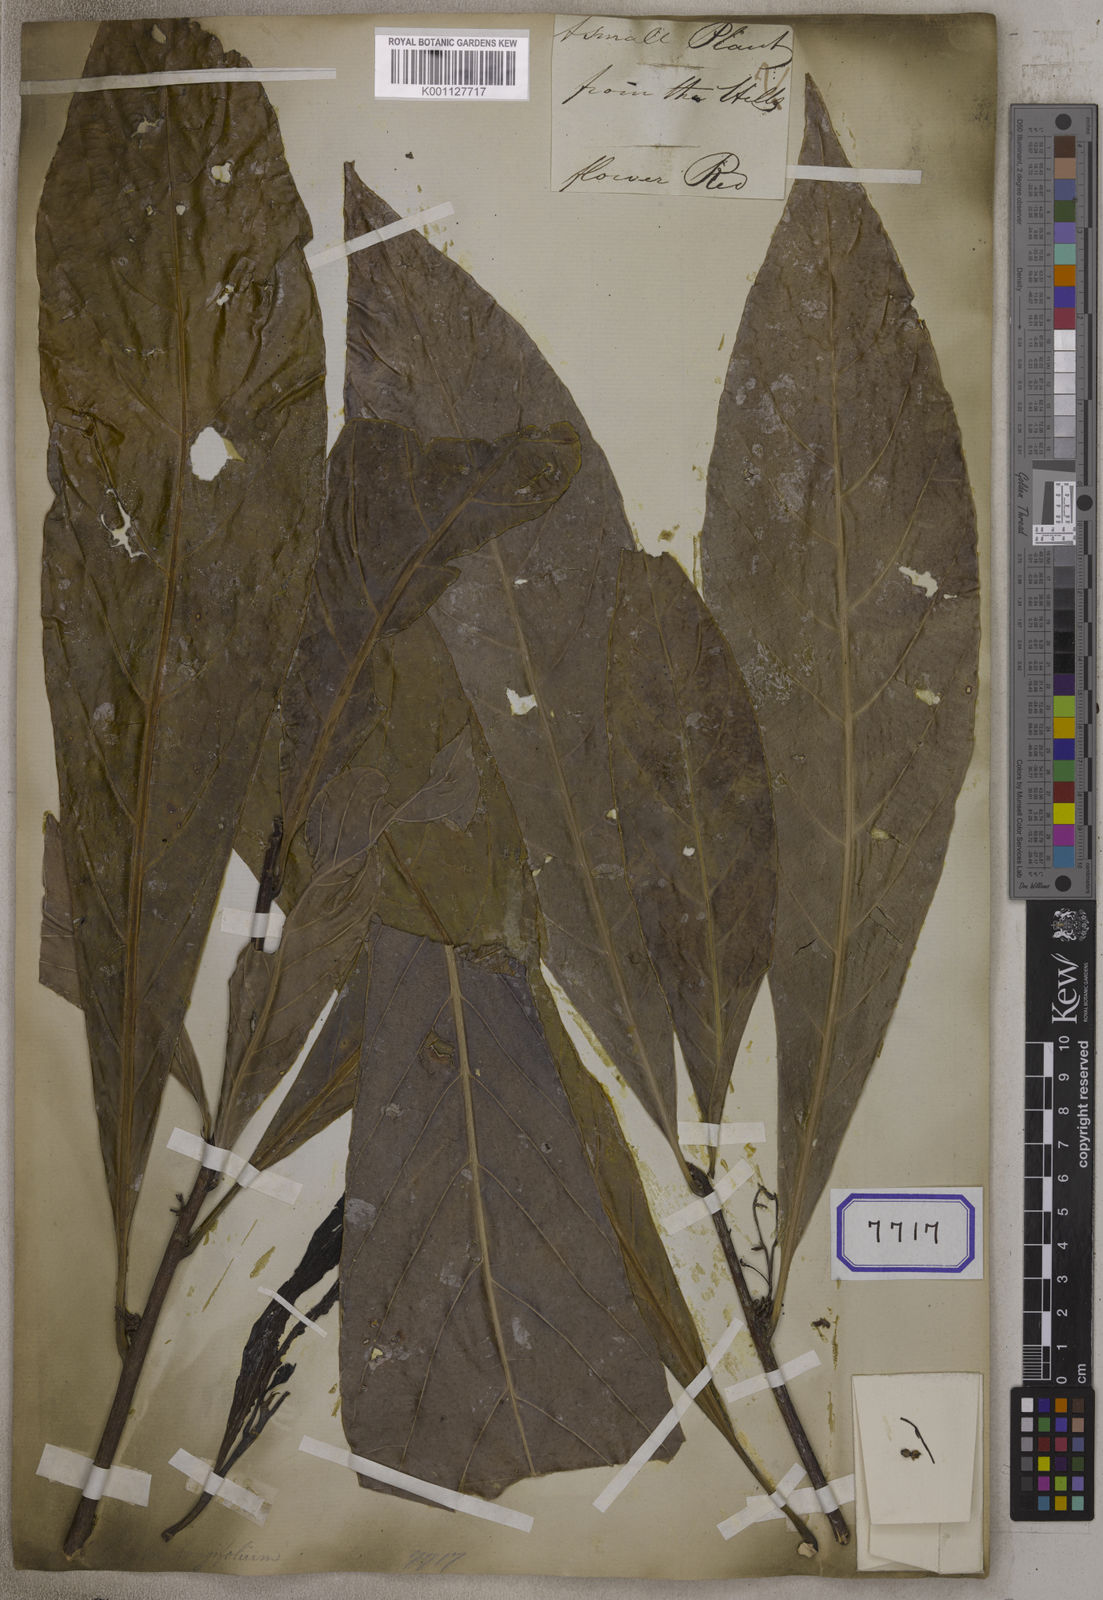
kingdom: Plantae
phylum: Tracheophyta
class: Magnoliopsida
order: Malpighiales
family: Euphorbiaceae
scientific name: Euphorbiaceae
